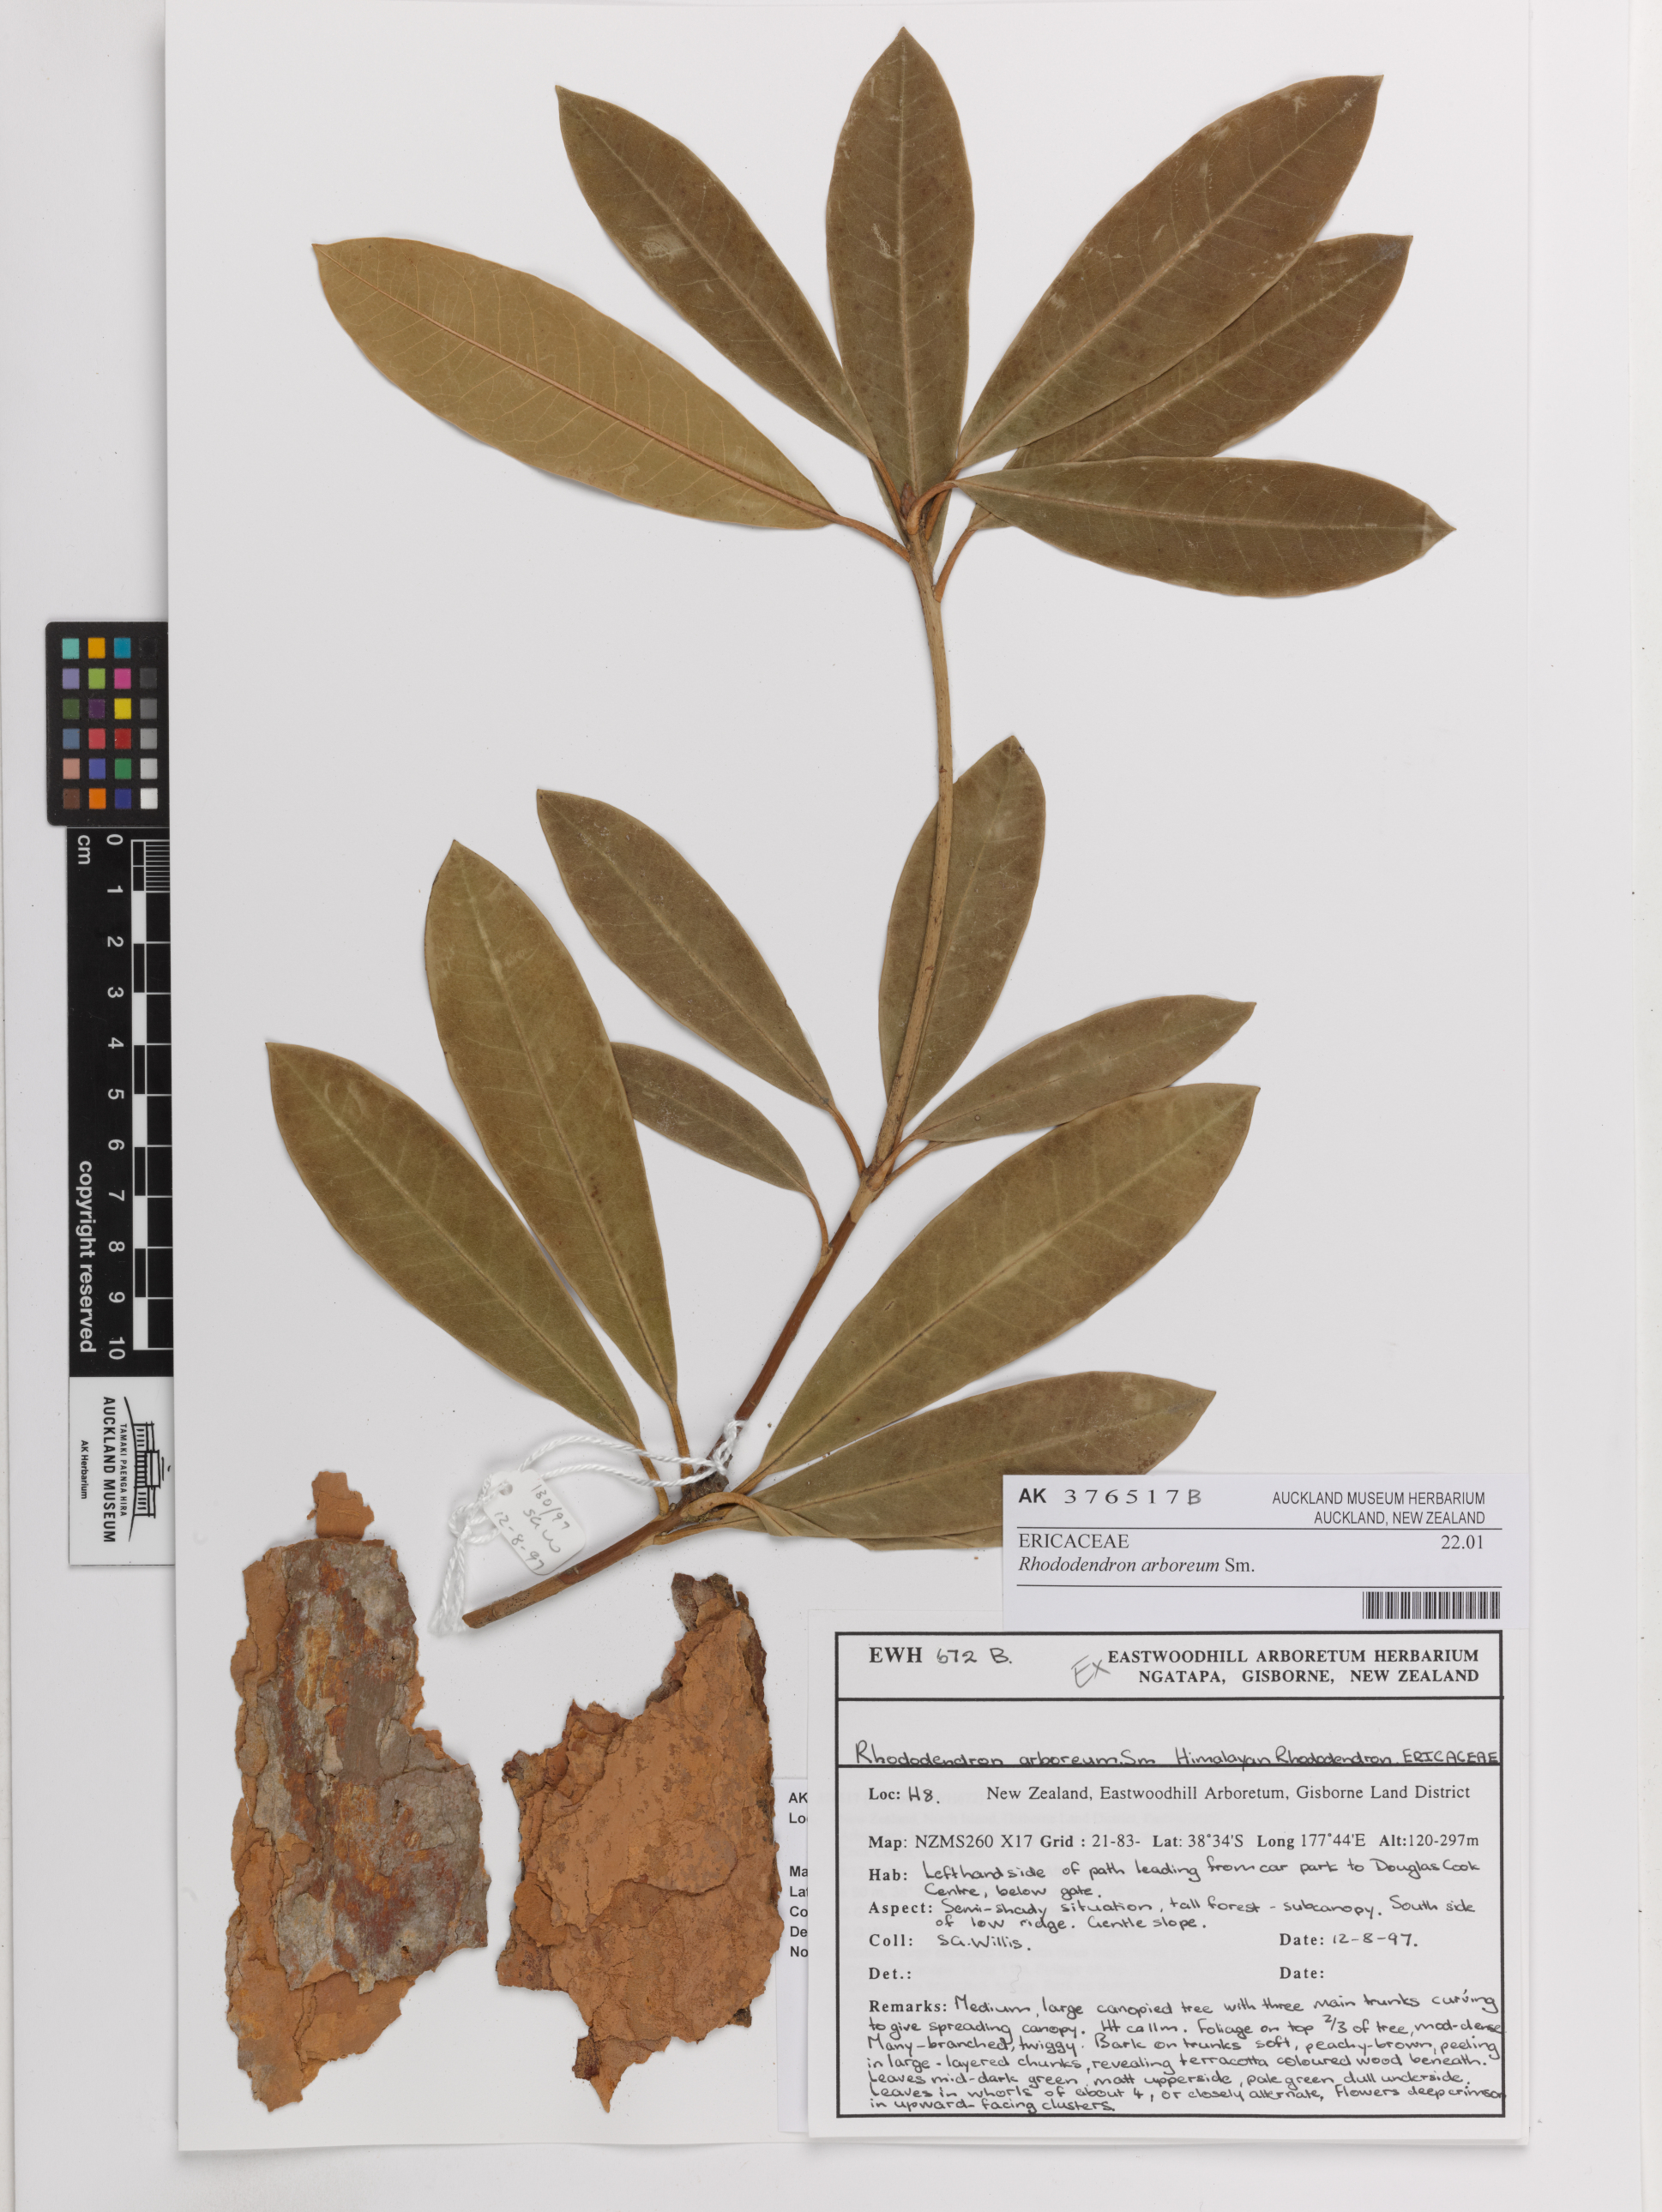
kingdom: Plantae
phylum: Tracheophyta
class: Magnoliopsida
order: Ericales
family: Ericaceae
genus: Rhododendron
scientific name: Rhododendron arboreum
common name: Tree rhododendron
